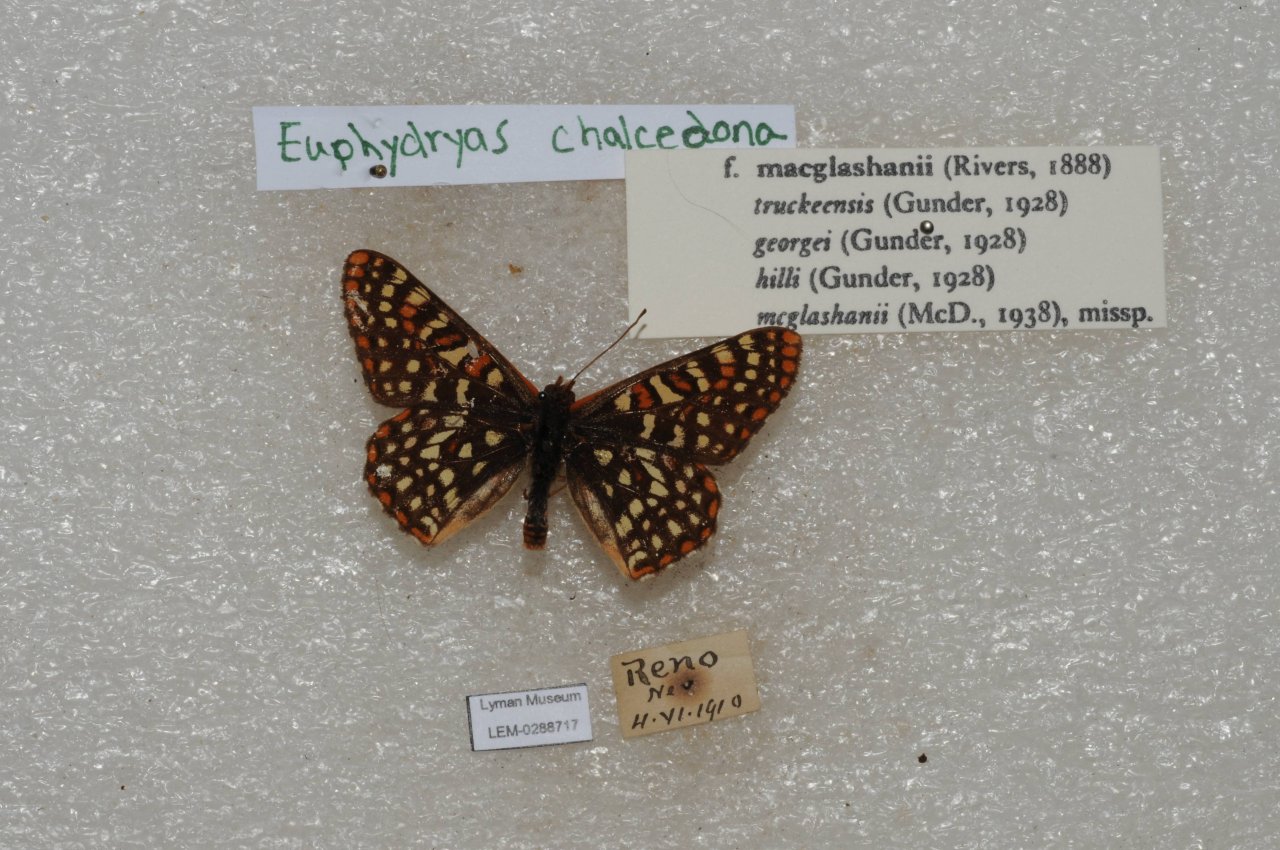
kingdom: Animalia
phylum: Arthropoda
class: Insecta
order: Lepidoptera
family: Nymphalidae
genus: Occidryas
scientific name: Occidryas chalcedona
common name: Chalcedon Checkerspot
